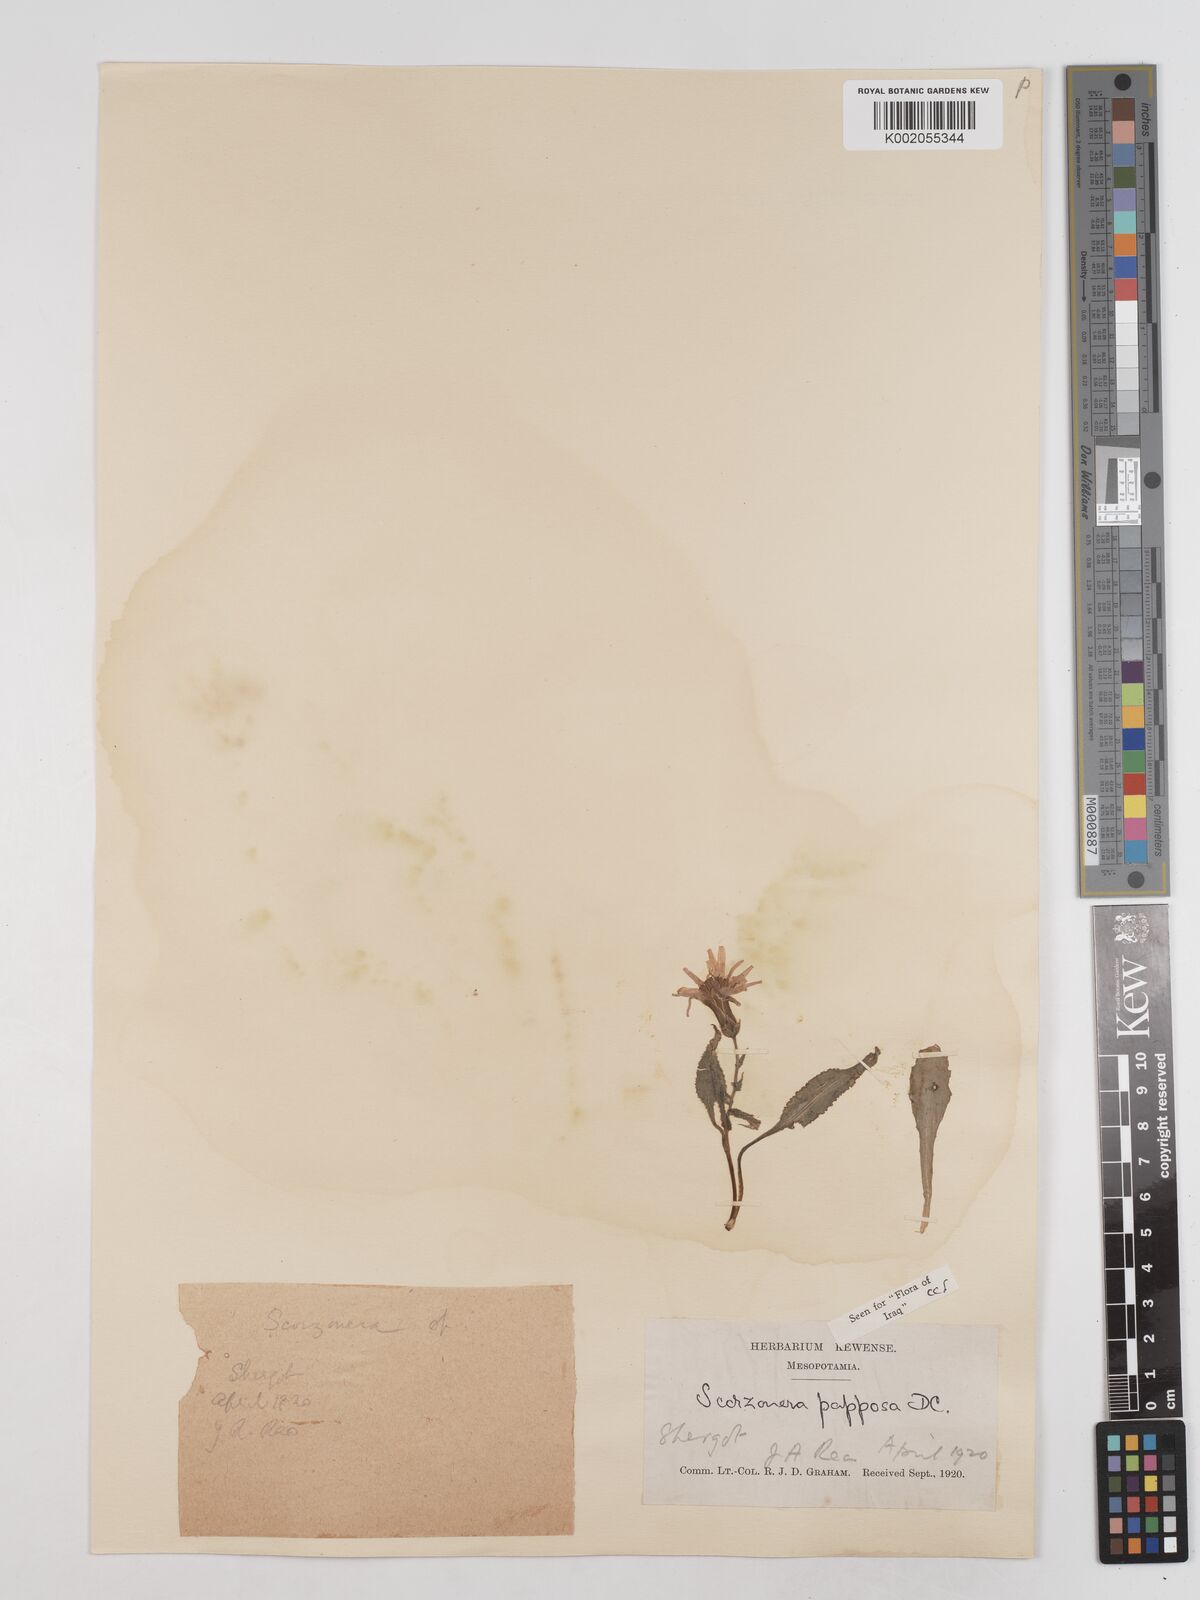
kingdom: Plantae
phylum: Tracheophyta
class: Magnoliopsida
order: Asterales
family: Asteraceae
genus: Pseudopodospermum
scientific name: Pseudopodospermum papposum
